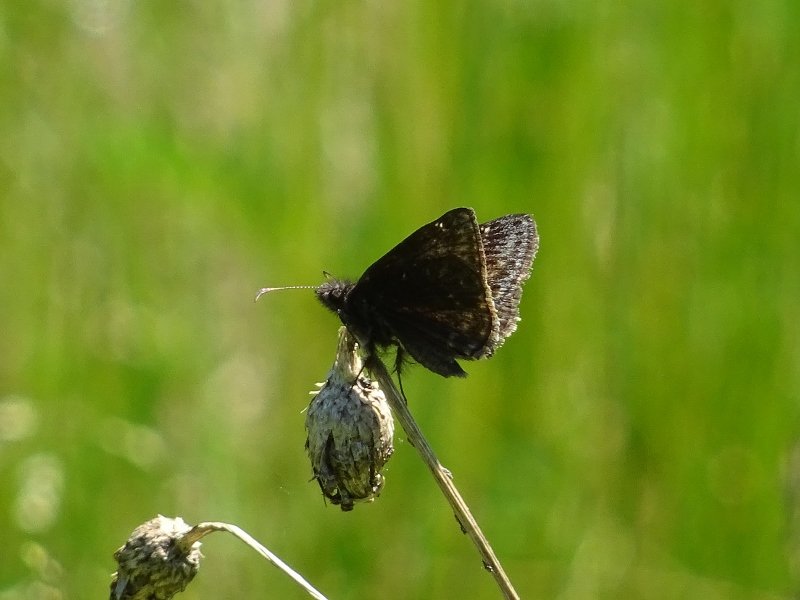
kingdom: Animalia
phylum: Arthropoda
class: Insecta
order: Lepidoptera
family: Hesperiidae
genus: Erynnis
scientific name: Erynnis
